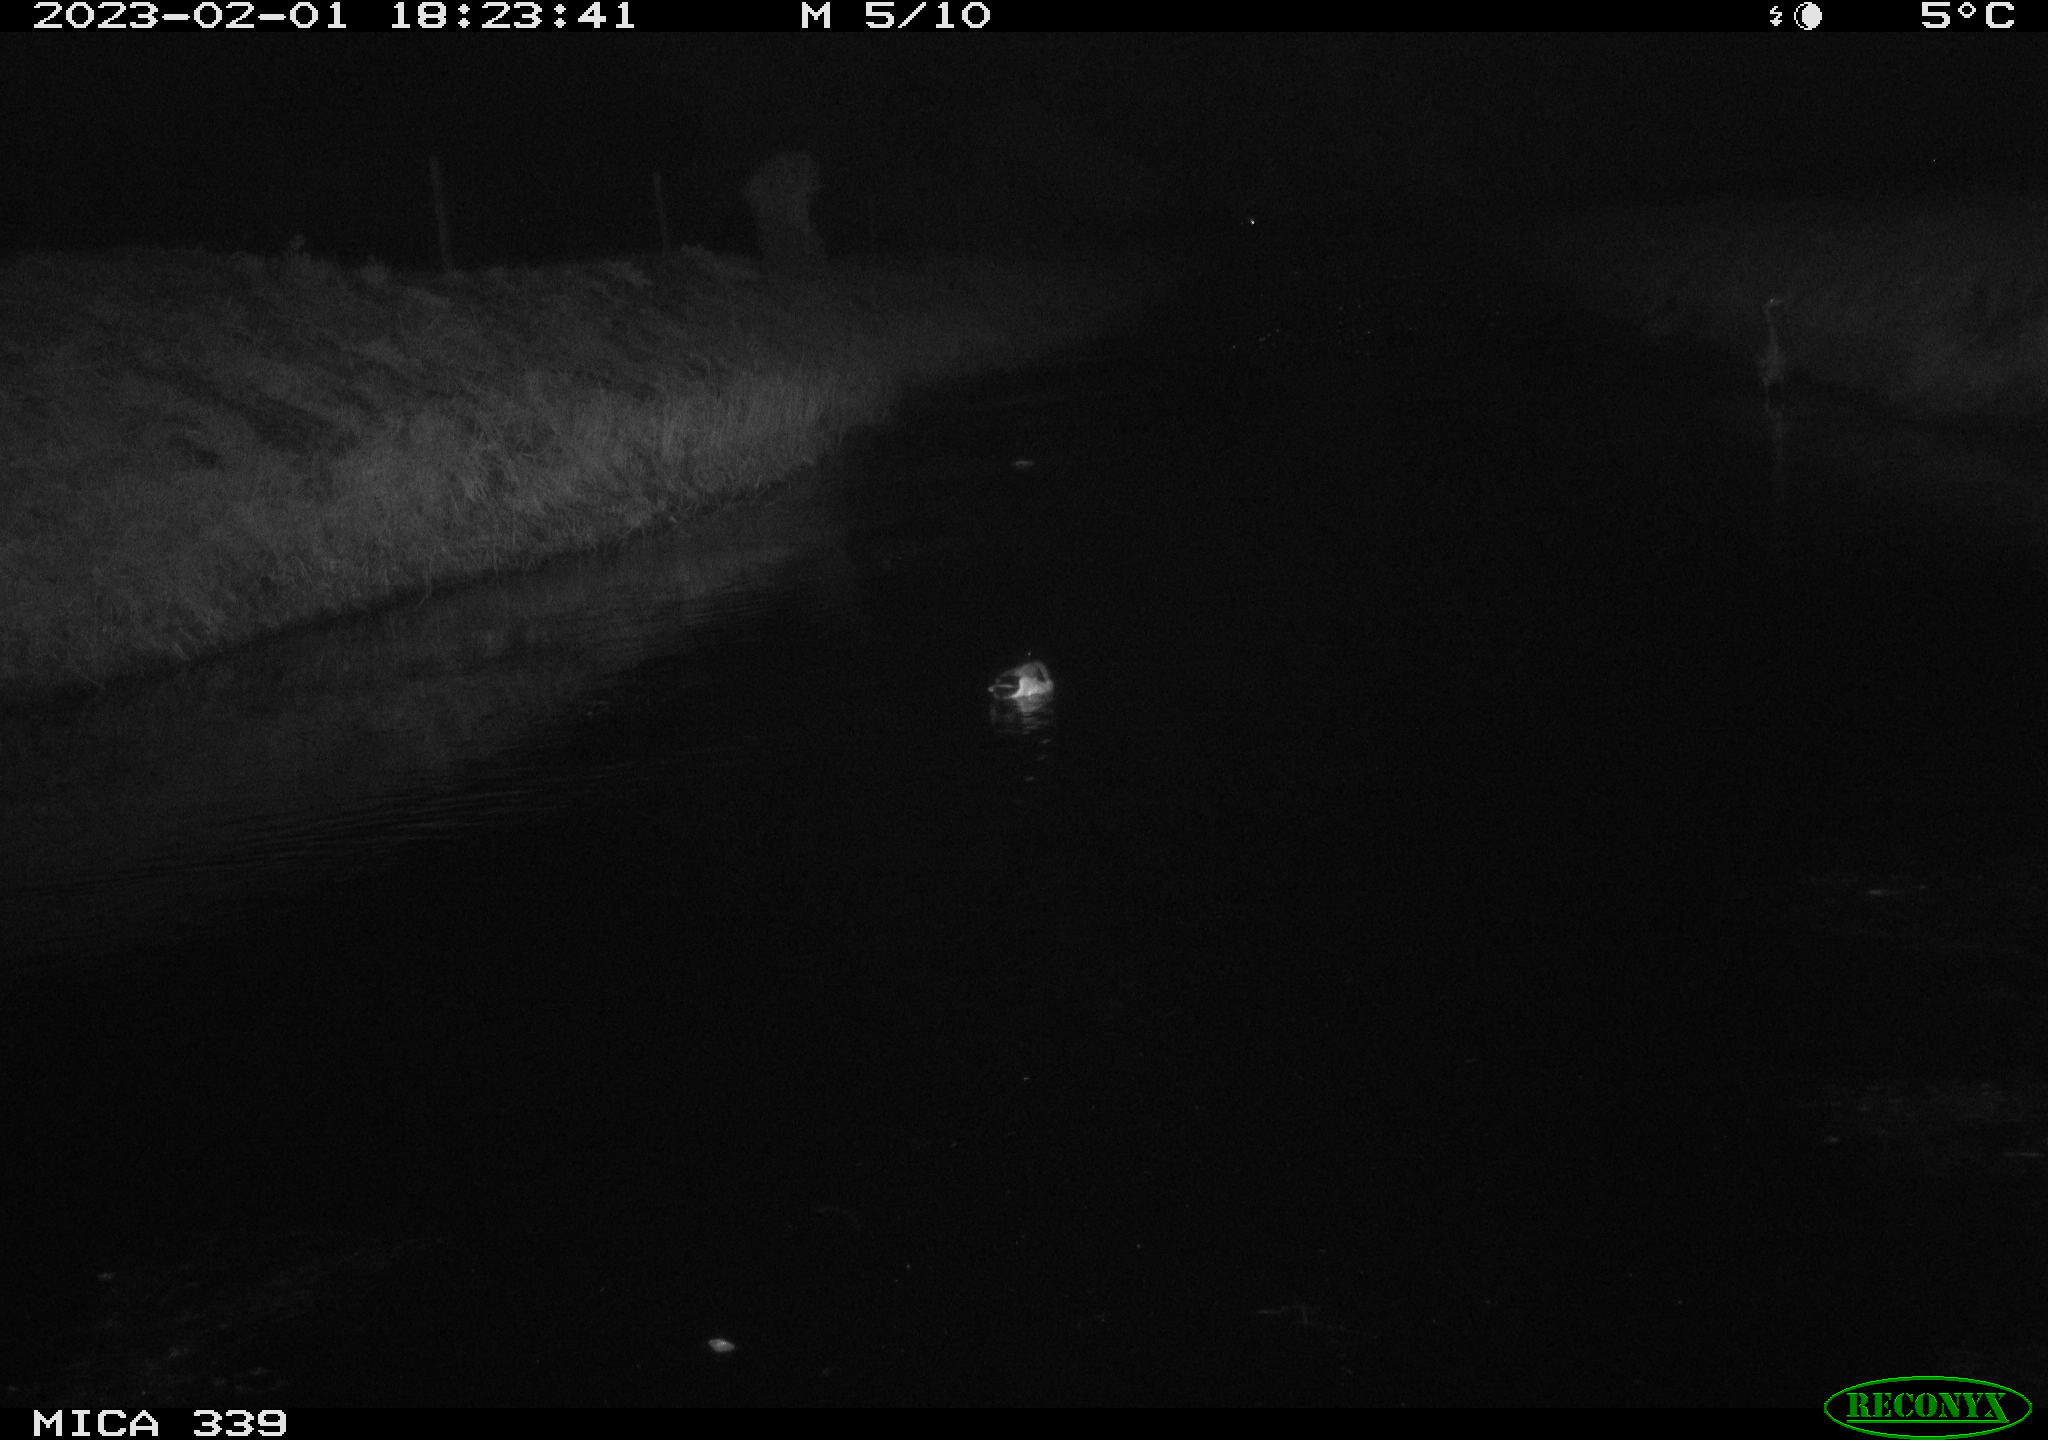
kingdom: Animalia
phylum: Chordata
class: Aves
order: Anseriformes
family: Anatidae
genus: Anas
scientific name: Anas
